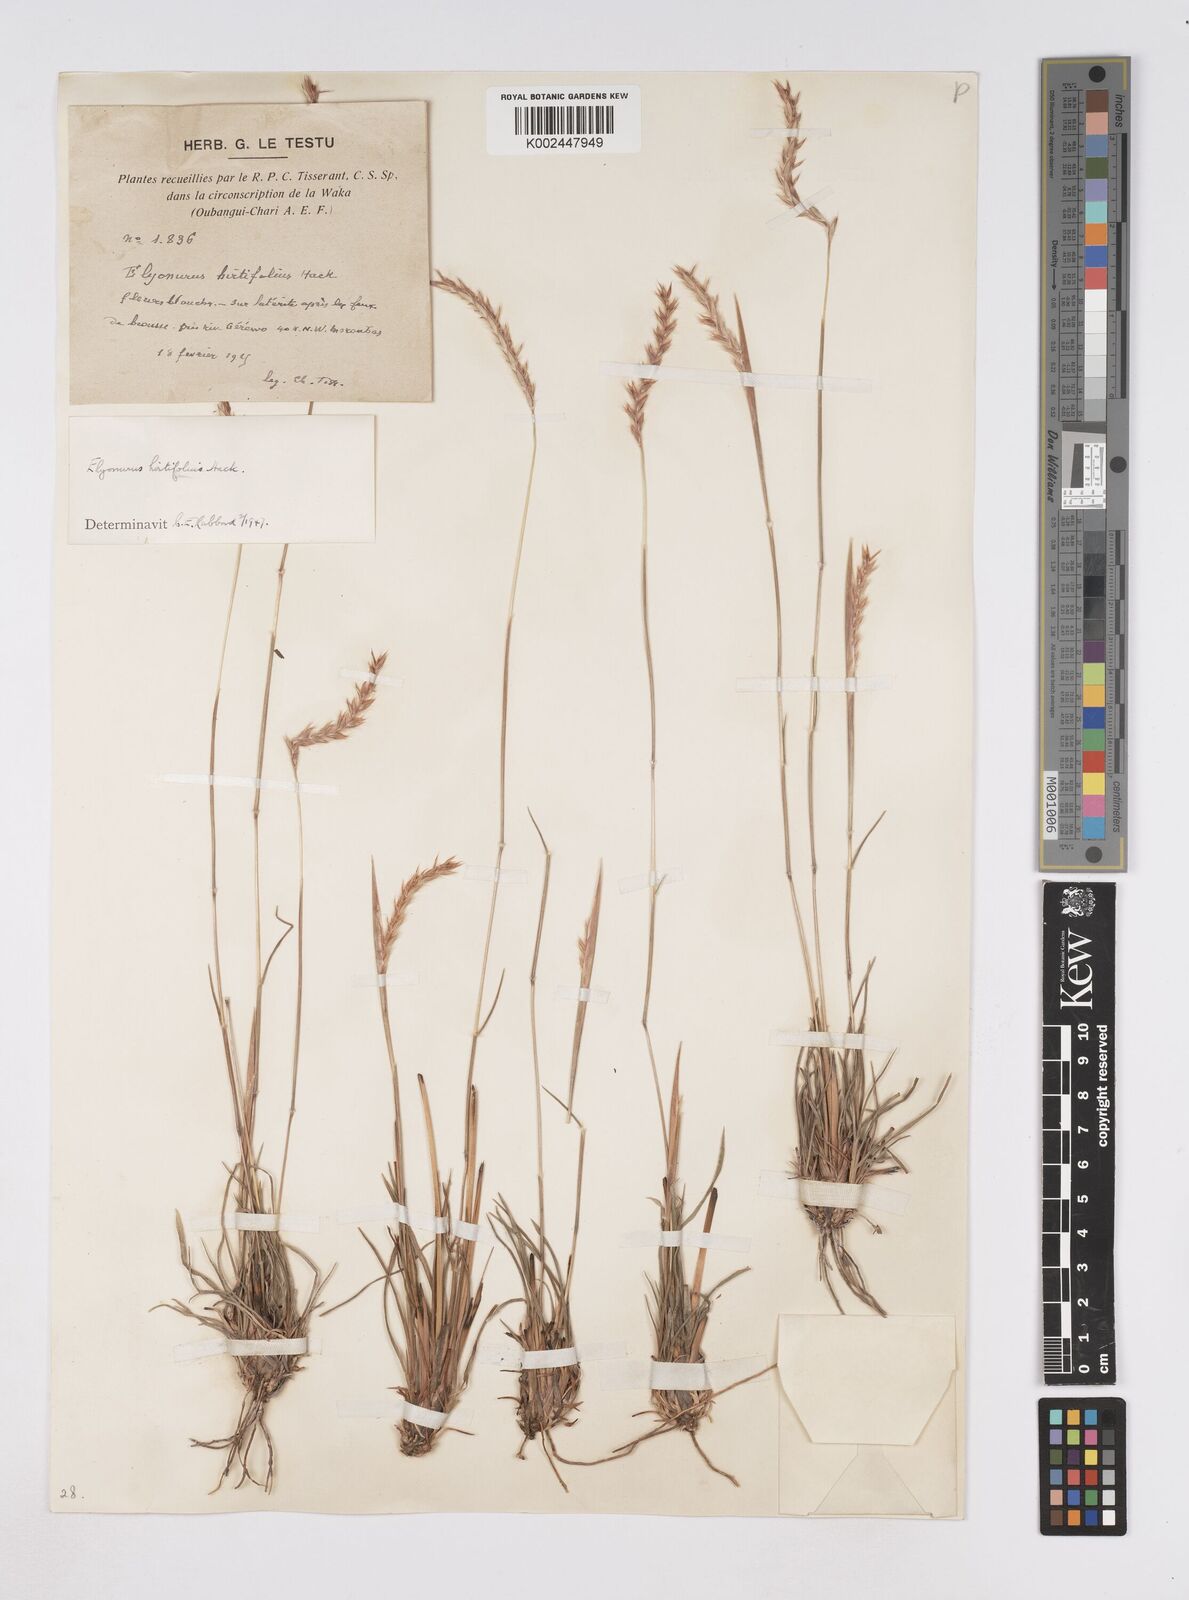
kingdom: Plantae
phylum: Tracheophyta
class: Liliopsida
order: Poales
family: Poaceae
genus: Elionurus
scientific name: Elionurus hirtifolius
